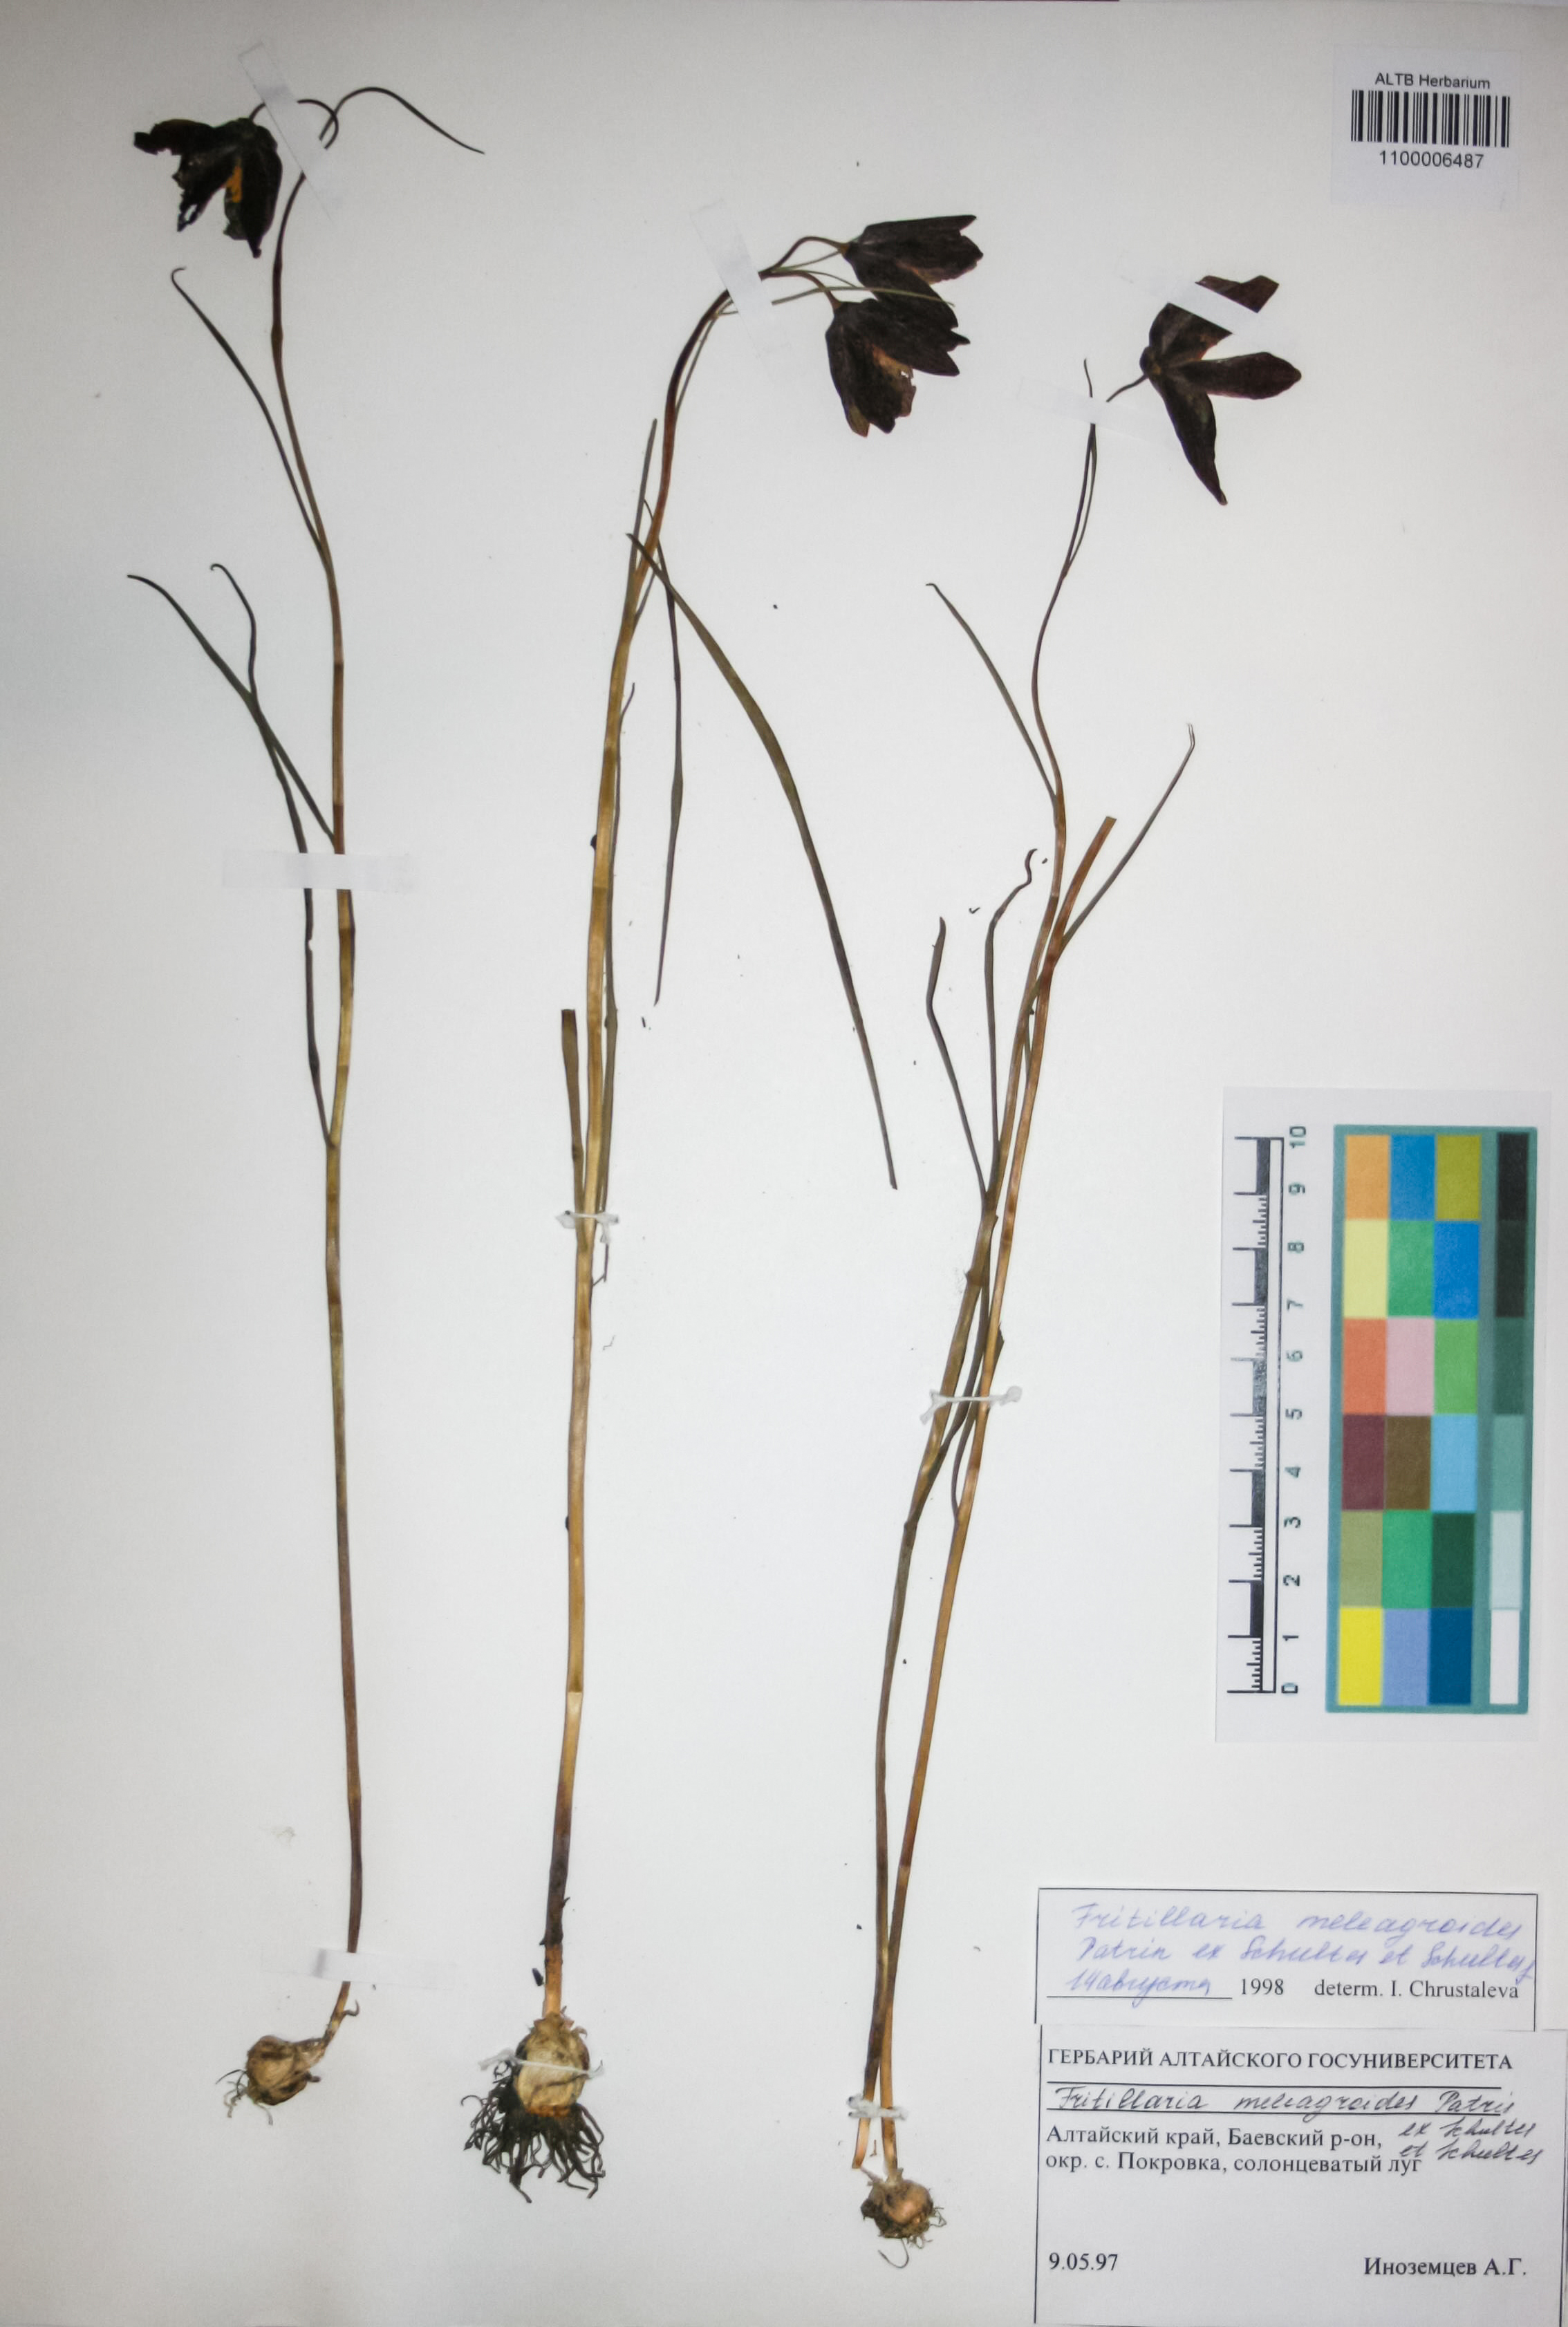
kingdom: Plantae
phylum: Tracheophyta
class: Liliopsida
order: Liliales
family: Liliaceae
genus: Fritillaria
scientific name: Fritillaria meleagroides
